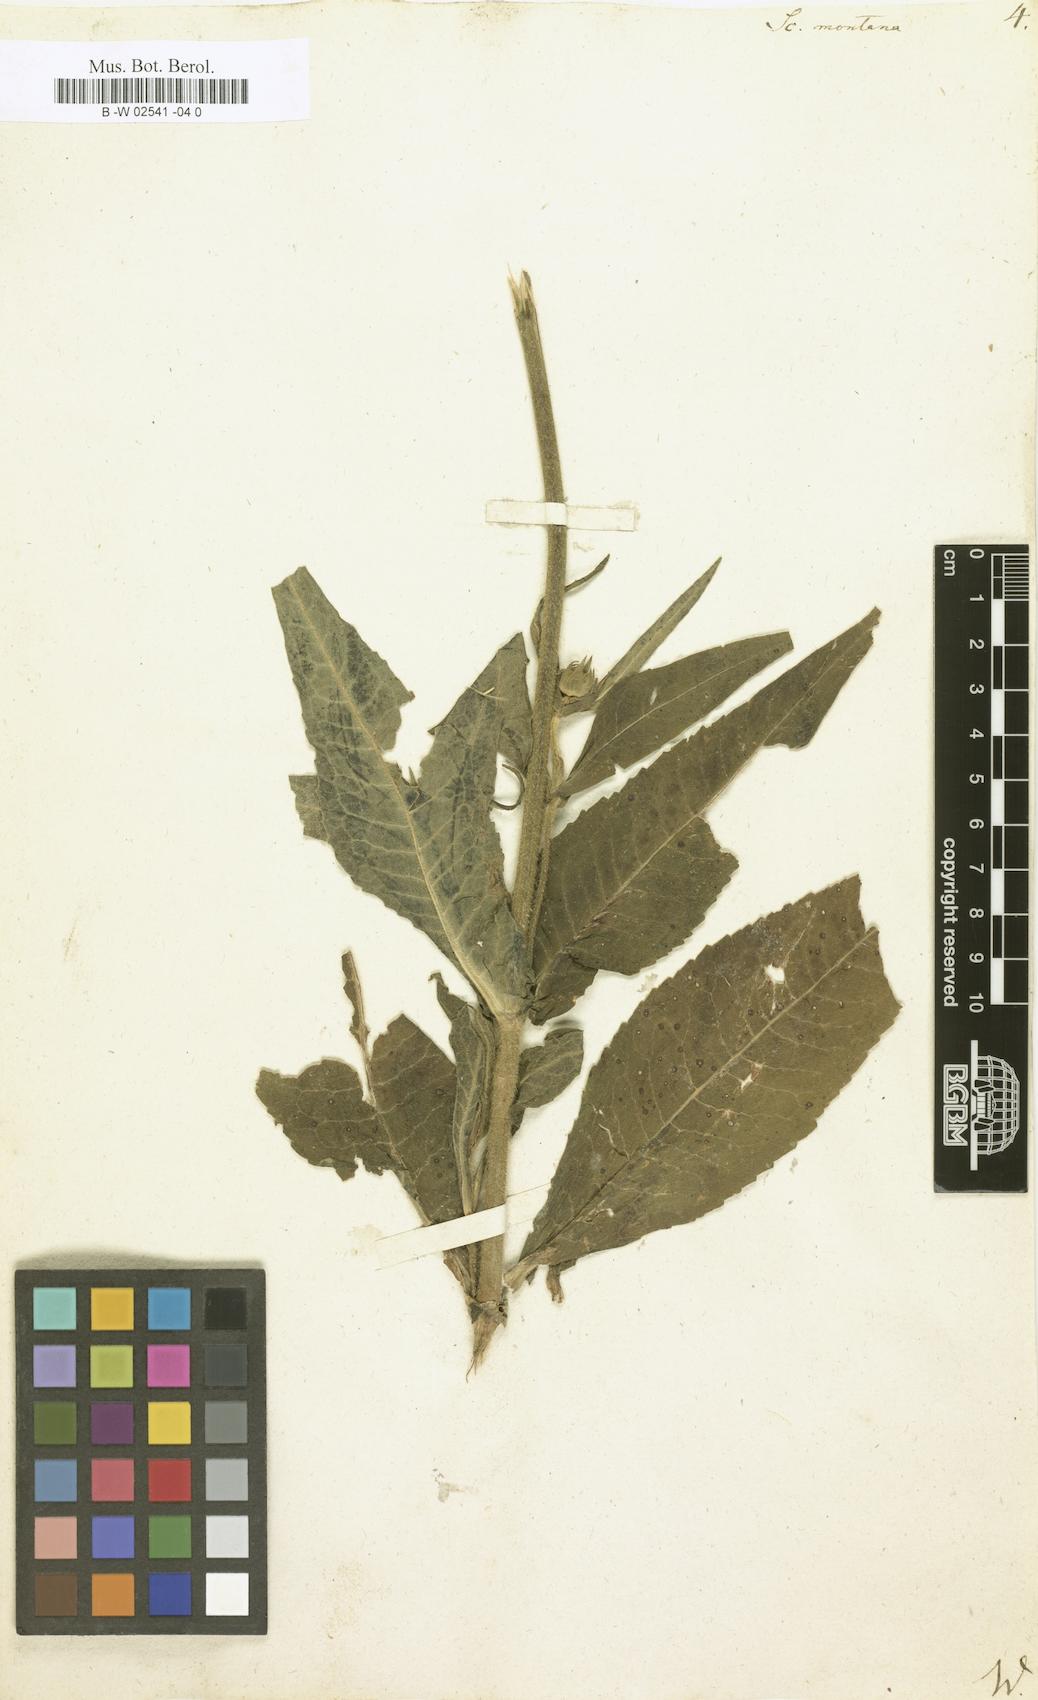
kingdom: Plantae
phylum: Tracheophyta
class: Magnoliopsida
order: Dipsacales
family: Caprifoliaceae
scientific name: Caprifoliaceae
